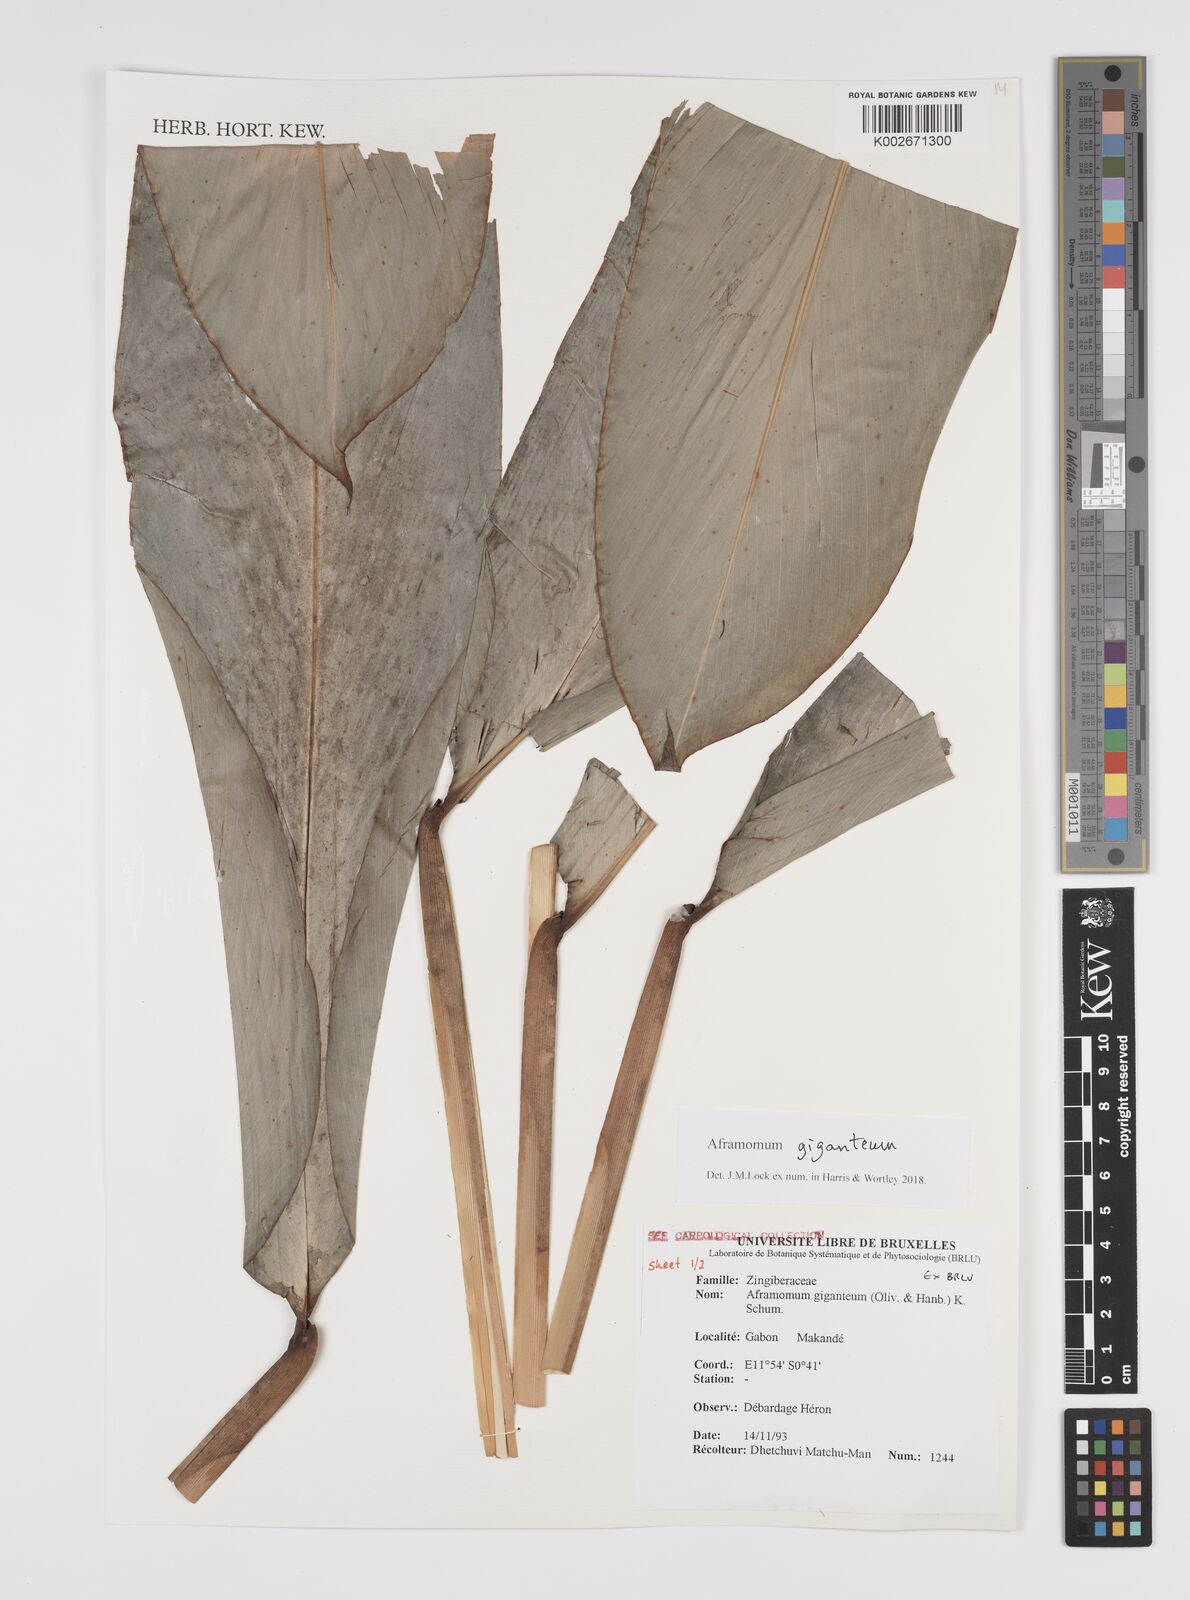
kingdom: Plantae
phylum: Tracheophyta
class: Liliopsida
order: Zingiberales
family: Zingiberaceae
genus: Aframomum
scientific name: Aframomum giganteum
